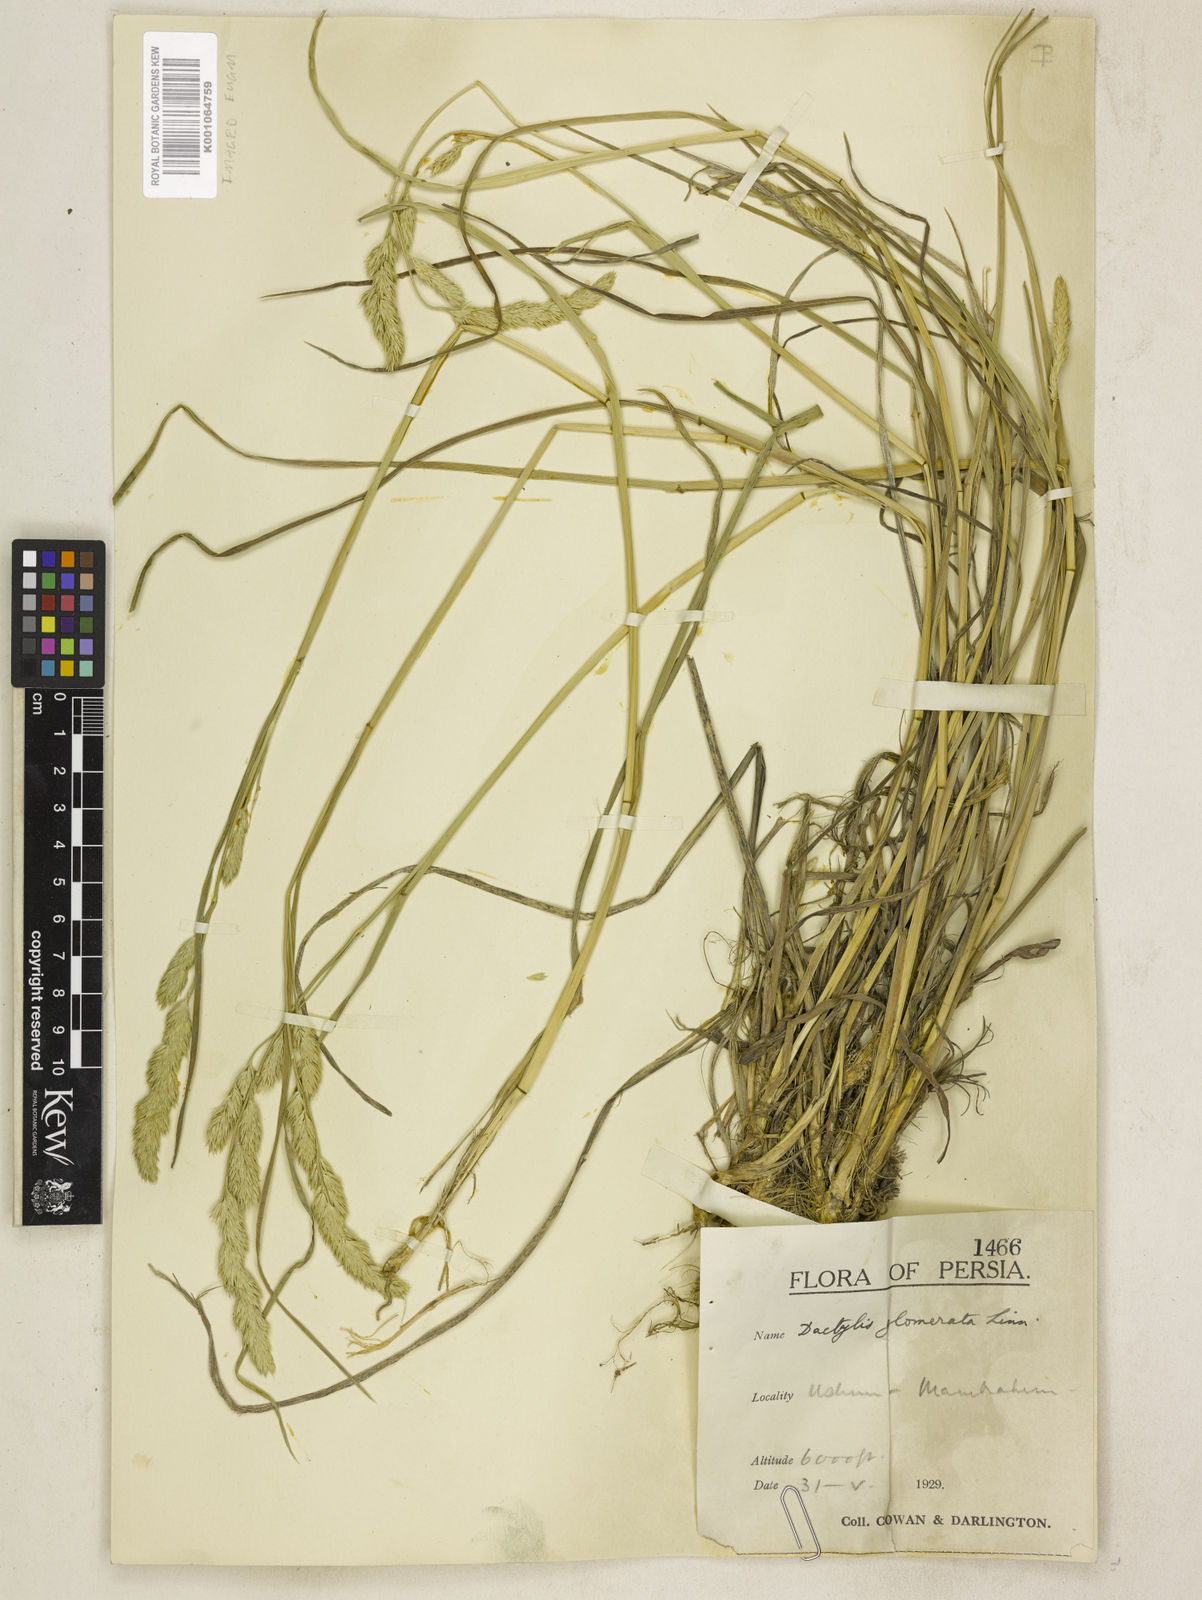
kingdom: Plantae
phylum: Tracheophyta
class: Liliopsida
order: Poales
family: Poaceae
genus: Dactylis
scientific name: Dactylis glomerata
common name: Orchardgrass
